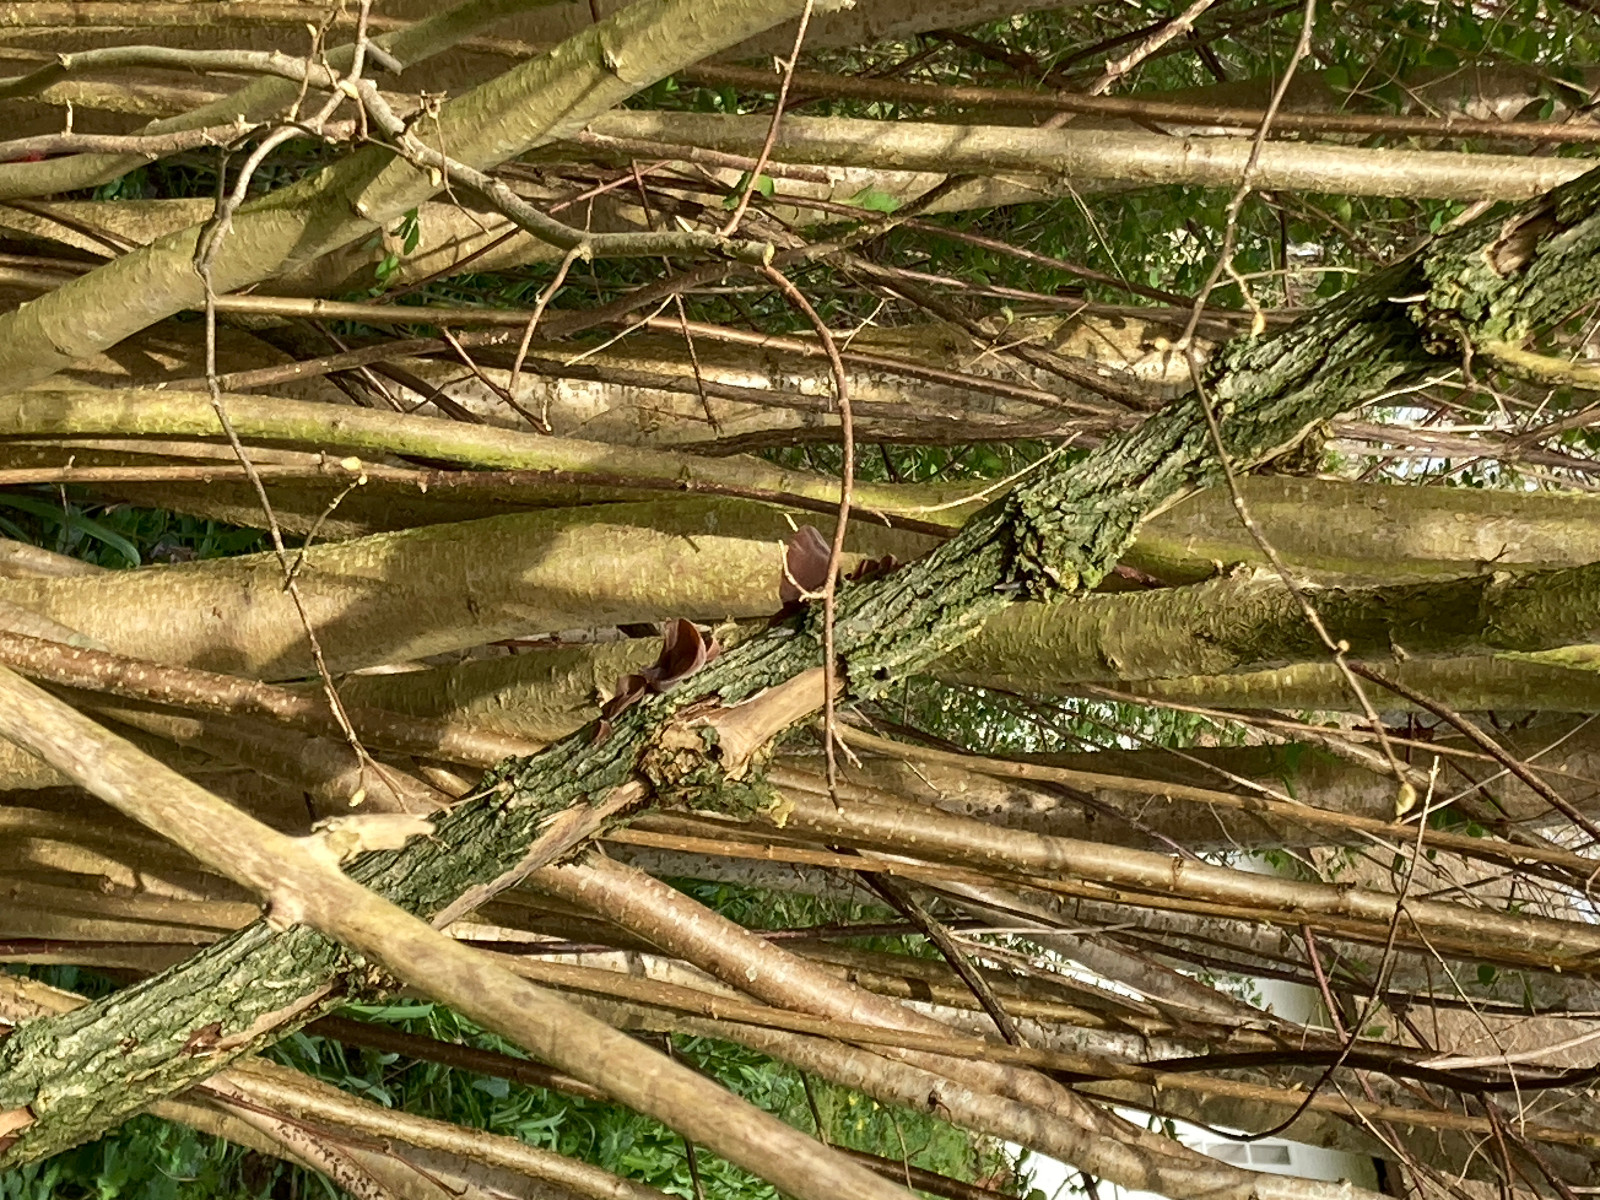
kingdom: Fungi
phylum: Basidiomycota
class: Agaricomycetes
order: Auriculariales
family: Auriculariaceae
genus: Auricularia
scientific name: Auricularia auricula-judae
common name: almindelig judasøre
